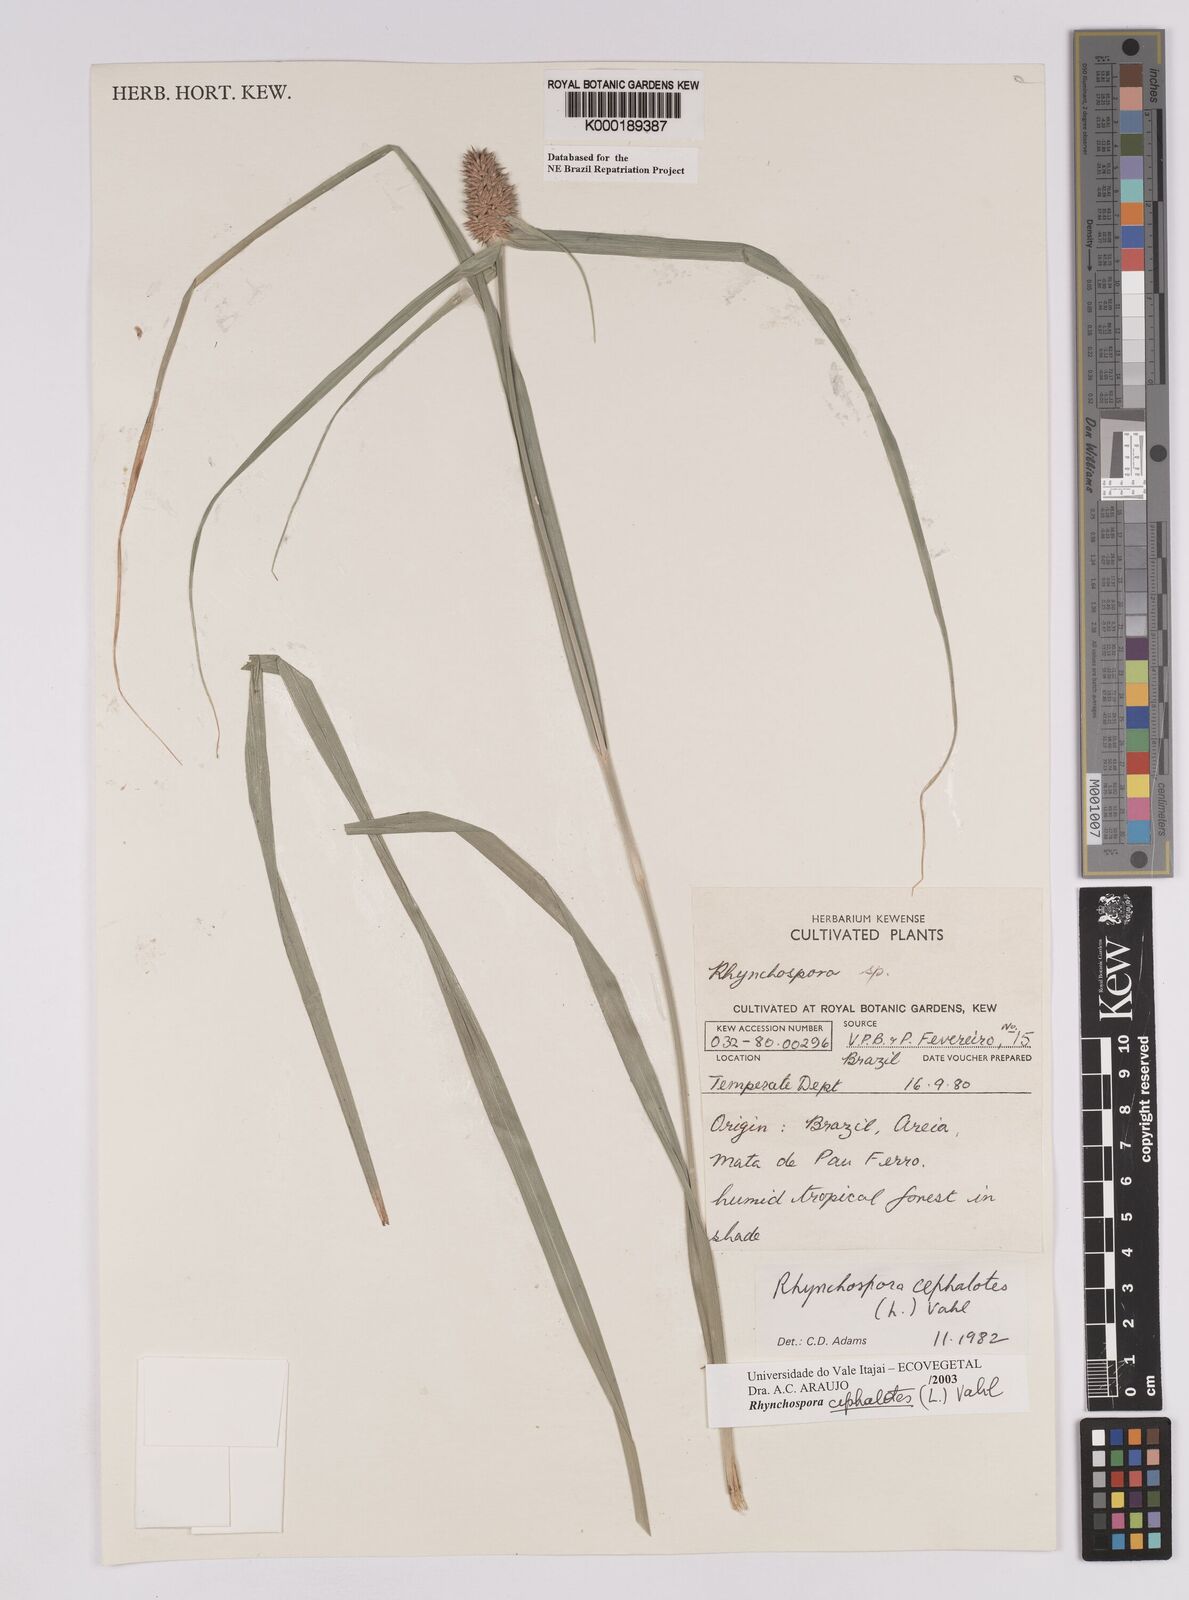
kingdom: Plantae
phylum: Tracheophyta
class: Liliopsida
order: Poales
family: Cyperaceae
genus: Rhynchospora
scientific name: Rhynchospora cephalotes
